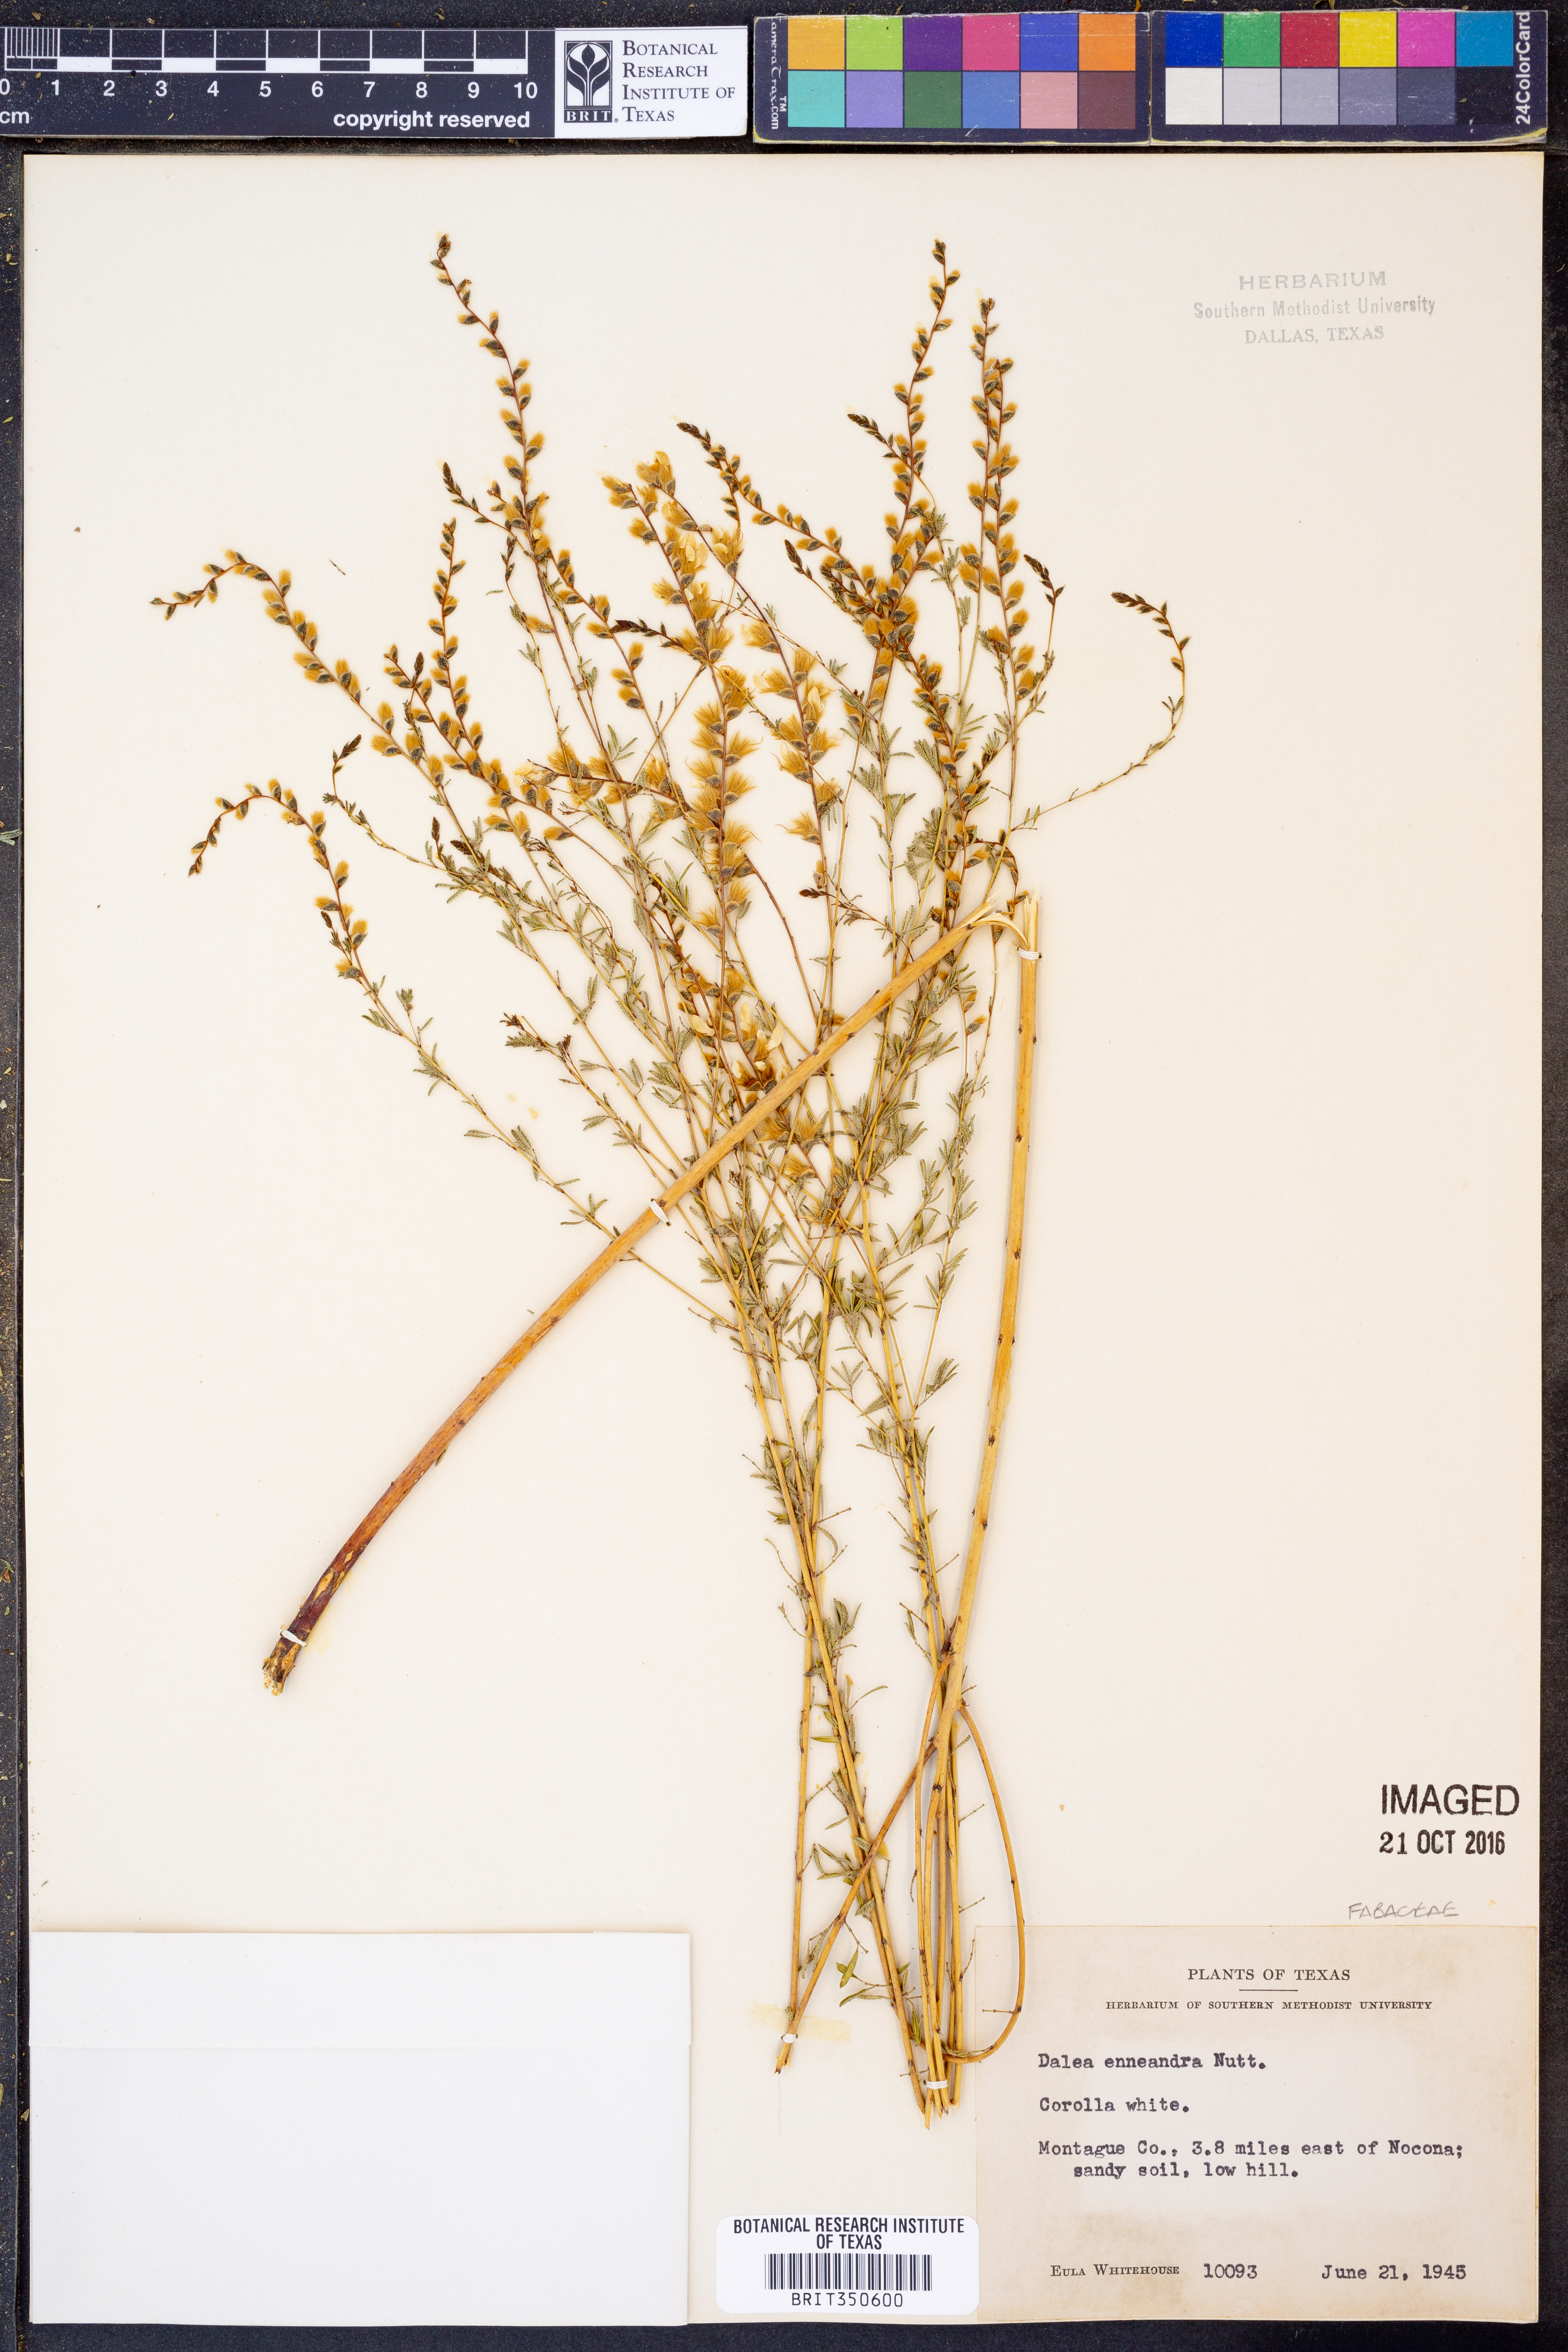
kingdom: Plantae
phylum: Tracheophyta
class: Magnoliopsida
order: Fabales
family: Fabaceae
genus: Dalea
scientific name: Dalea enneandra
